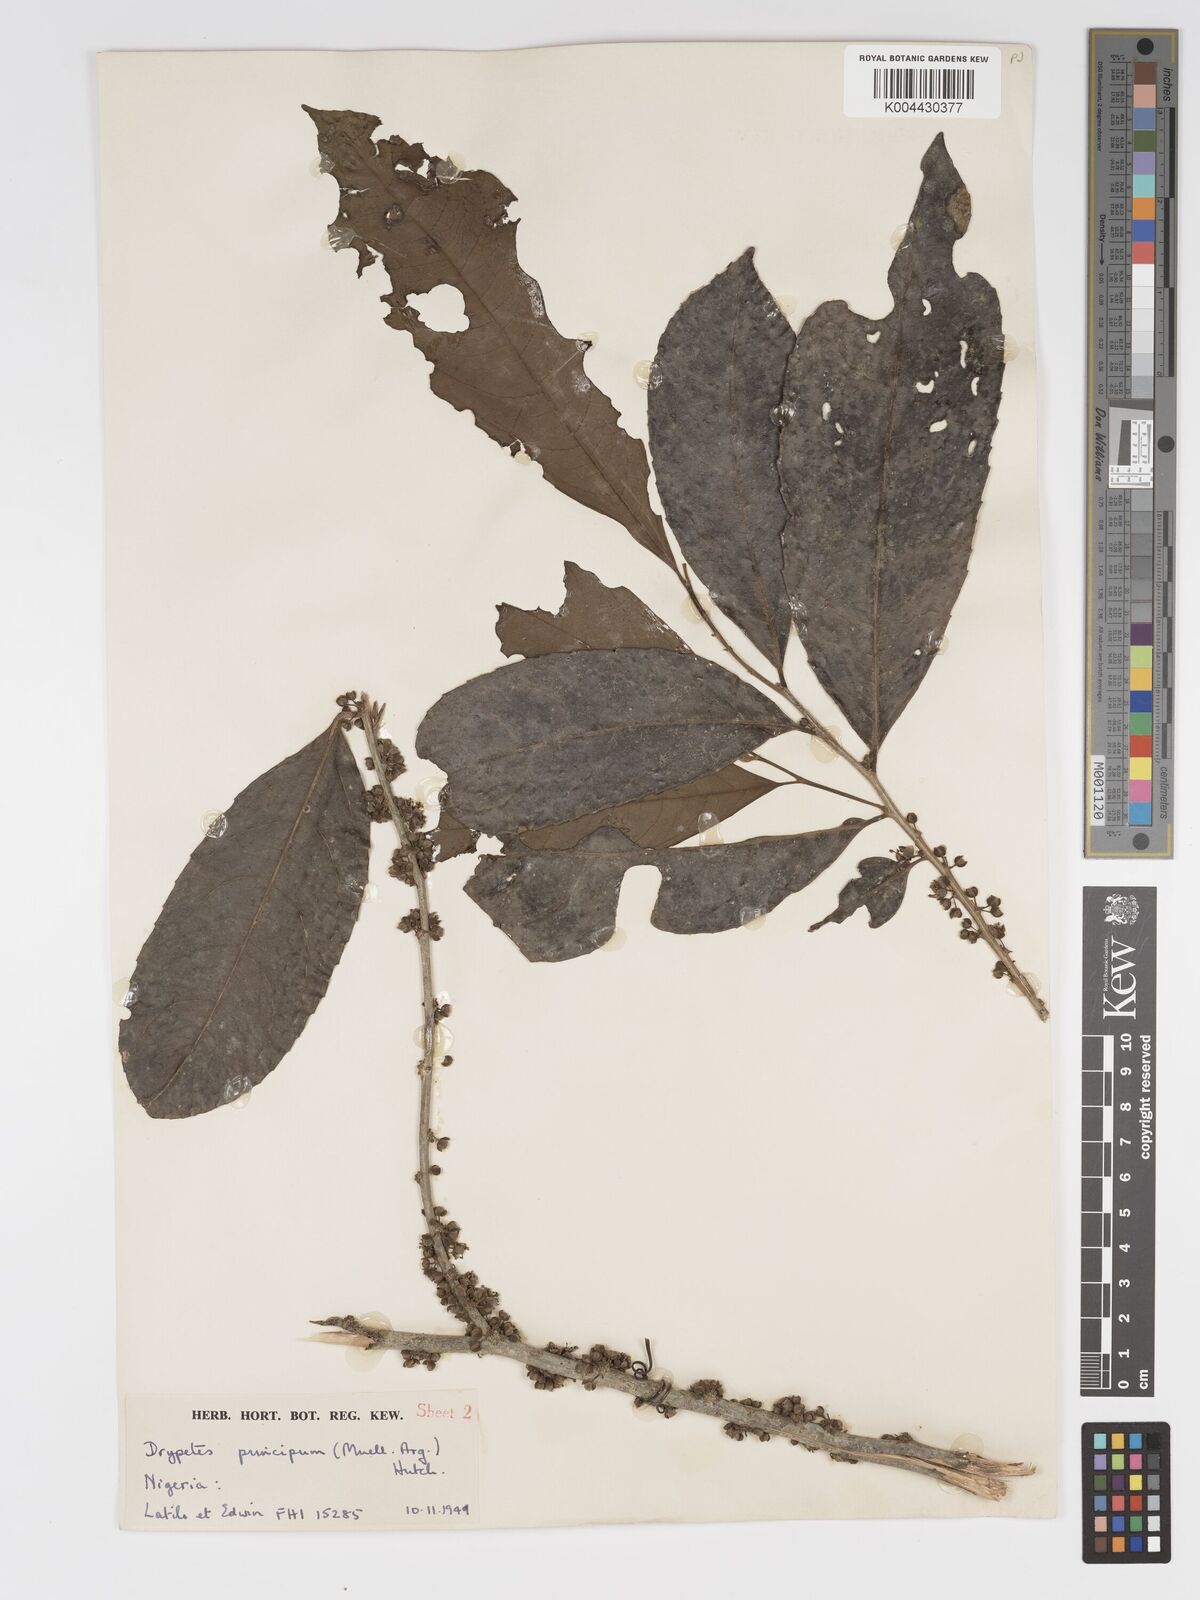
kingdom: Plantae
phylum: Tracheophyta
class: Magnoliopsida
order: Malpighiales
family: Putranjivaceae
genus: Drypetes
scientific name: Drypetes principum
